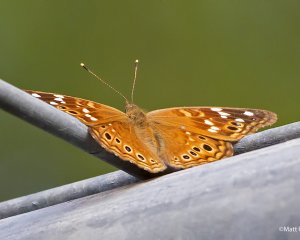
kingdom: Animalia
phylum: Arthropoda
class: Insecta
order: Lepidoptera
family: Nymphalidae
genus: Asterocampa
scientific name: Asterocampa leilia
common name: Empress Leilia
